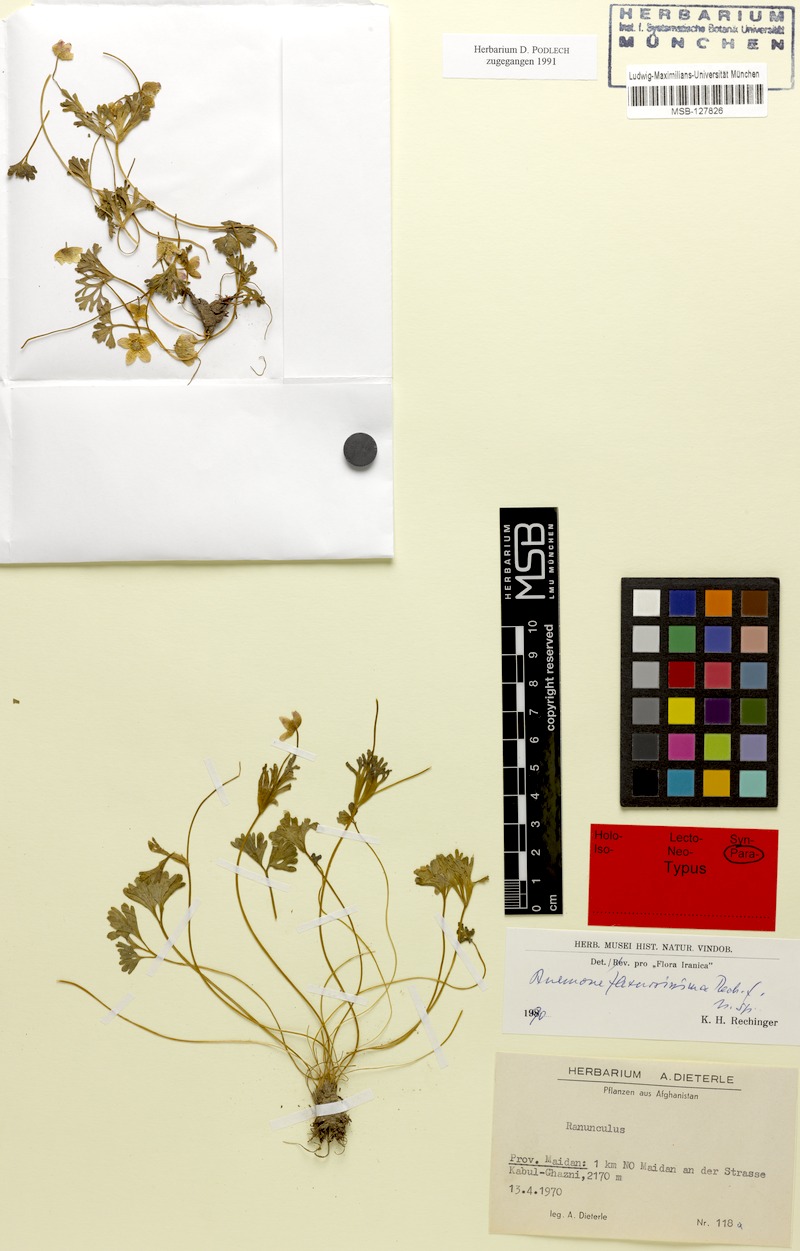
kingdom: Plantae
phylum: Tracheophyta
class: Magnoliopsida
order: Ranunculales
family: Ranunculaceae
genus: Anemone
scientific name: Anemone biflora
